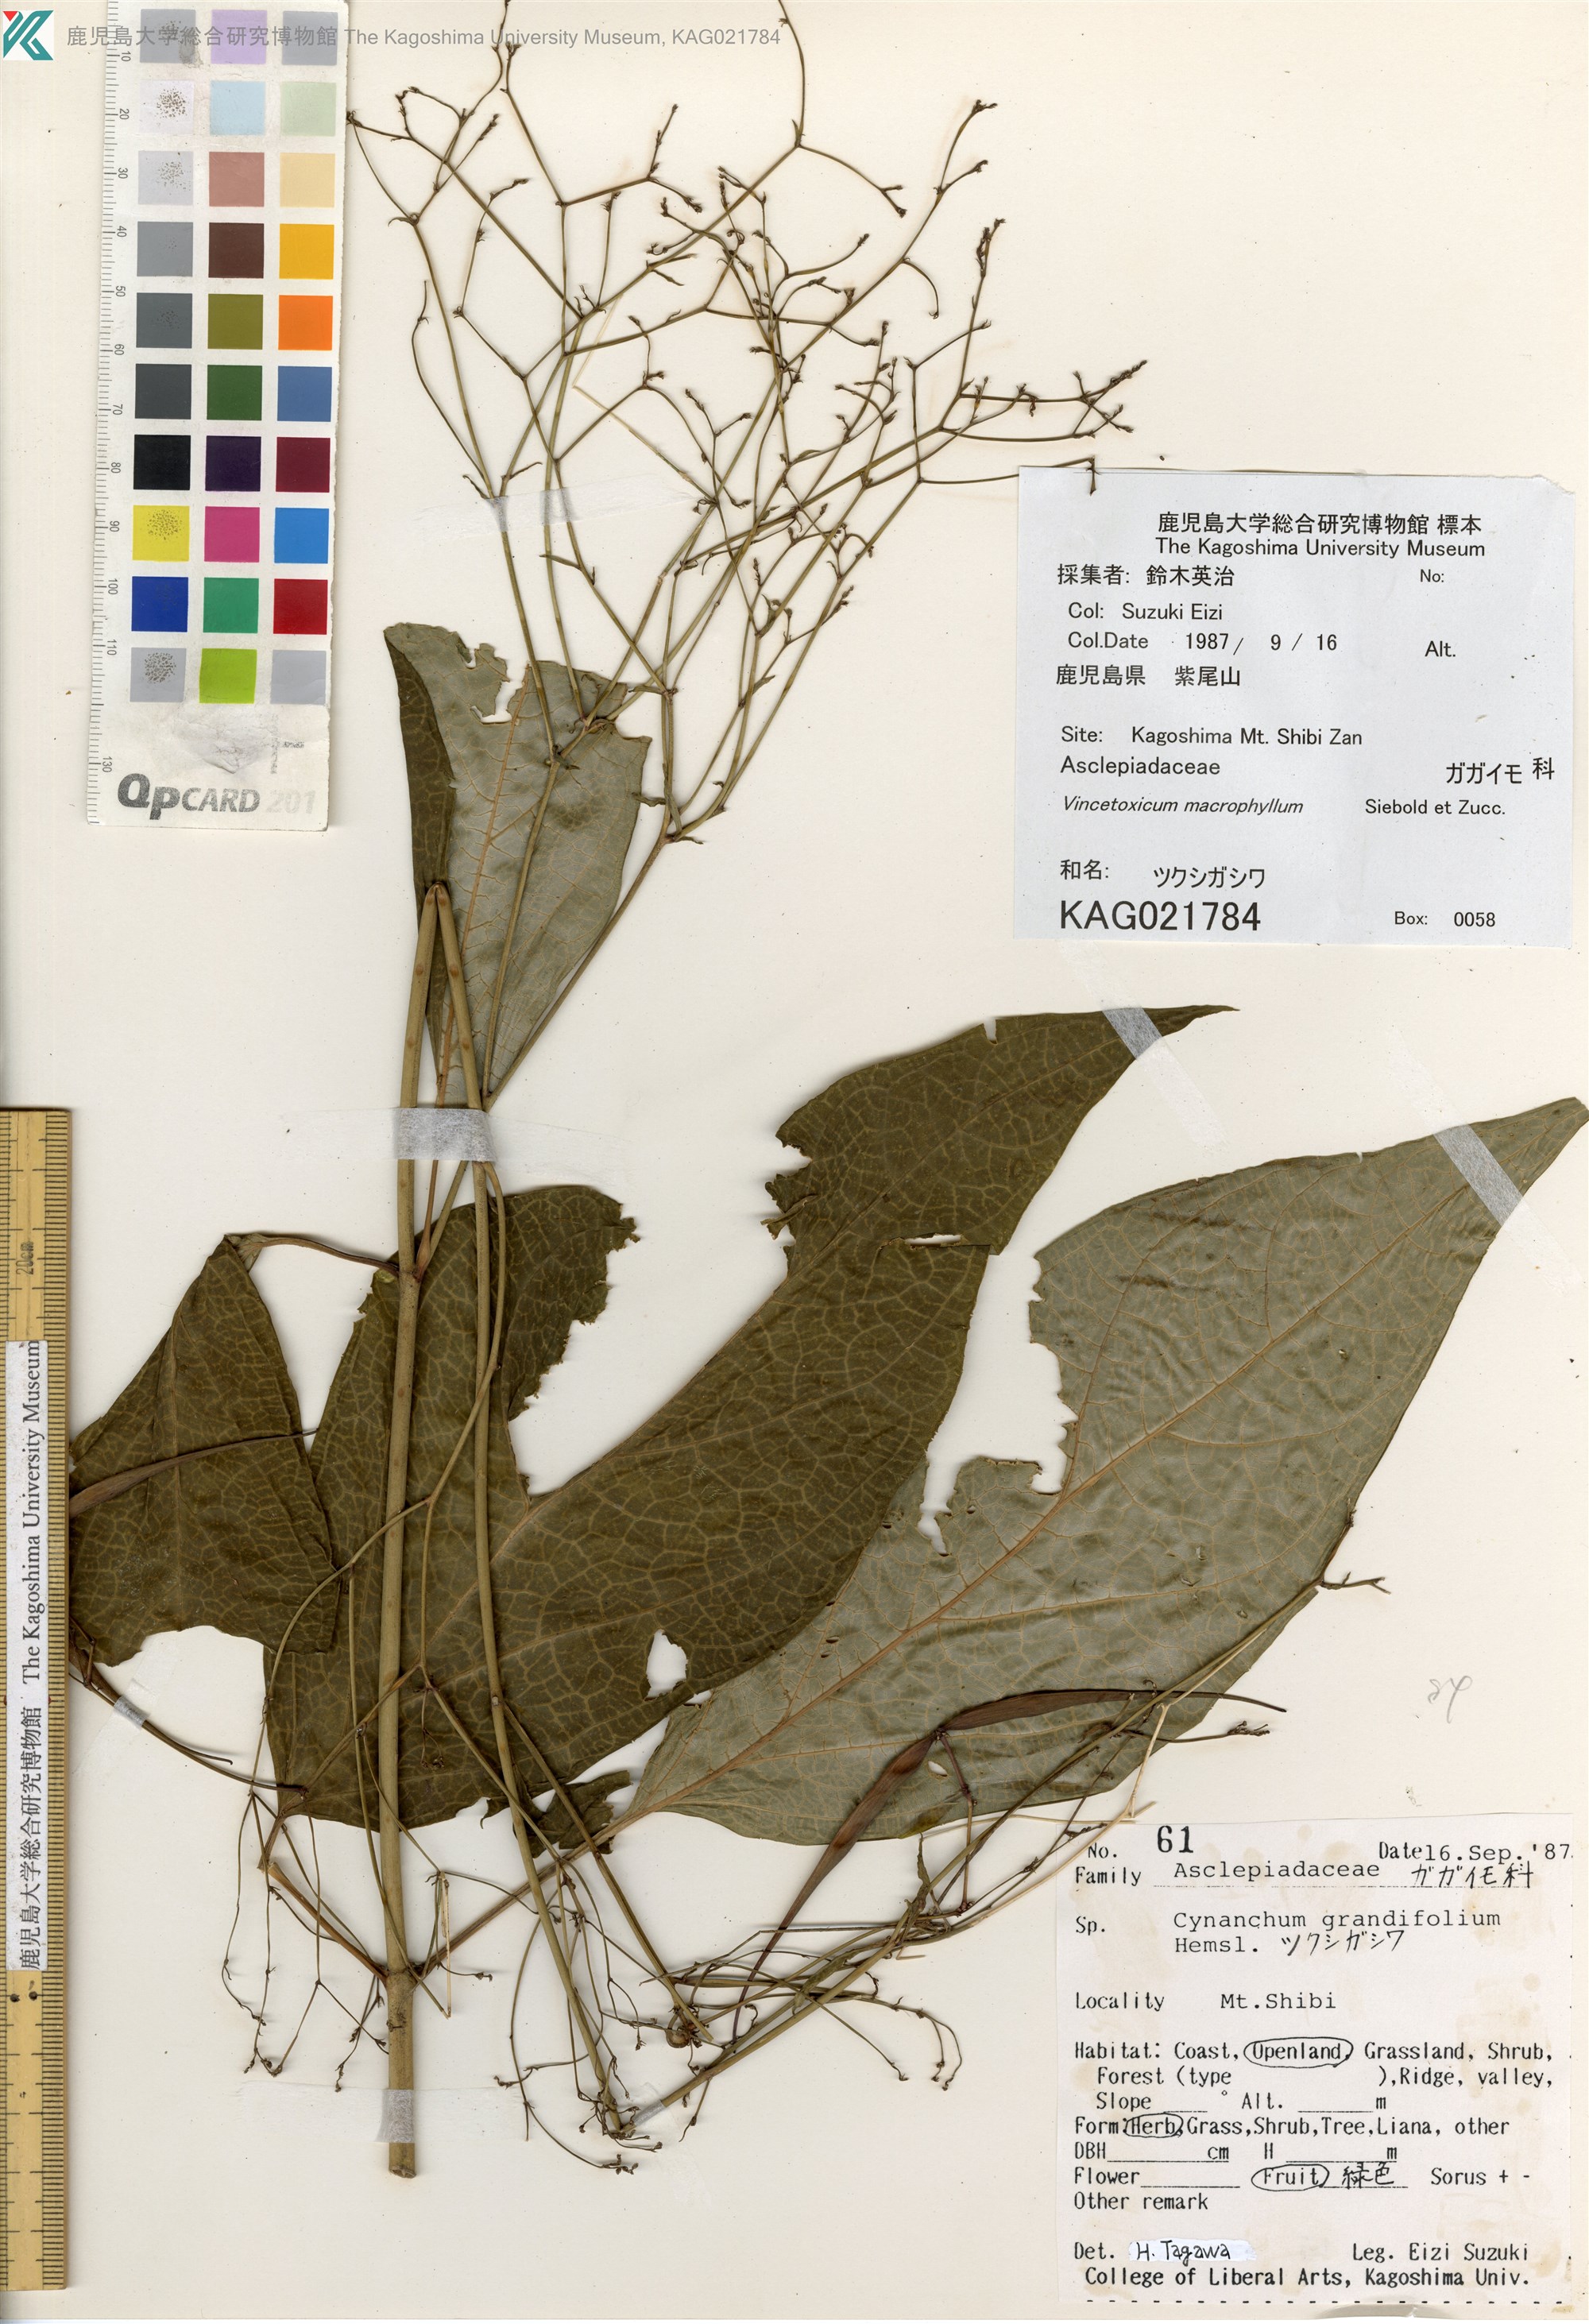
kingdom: Plantae
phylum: Tracheophyta
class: Magnoliopsida
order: Gentianales
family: Apocynaceae
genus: Vincetoxicum
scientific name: Vincetoxicum macrophyllum
